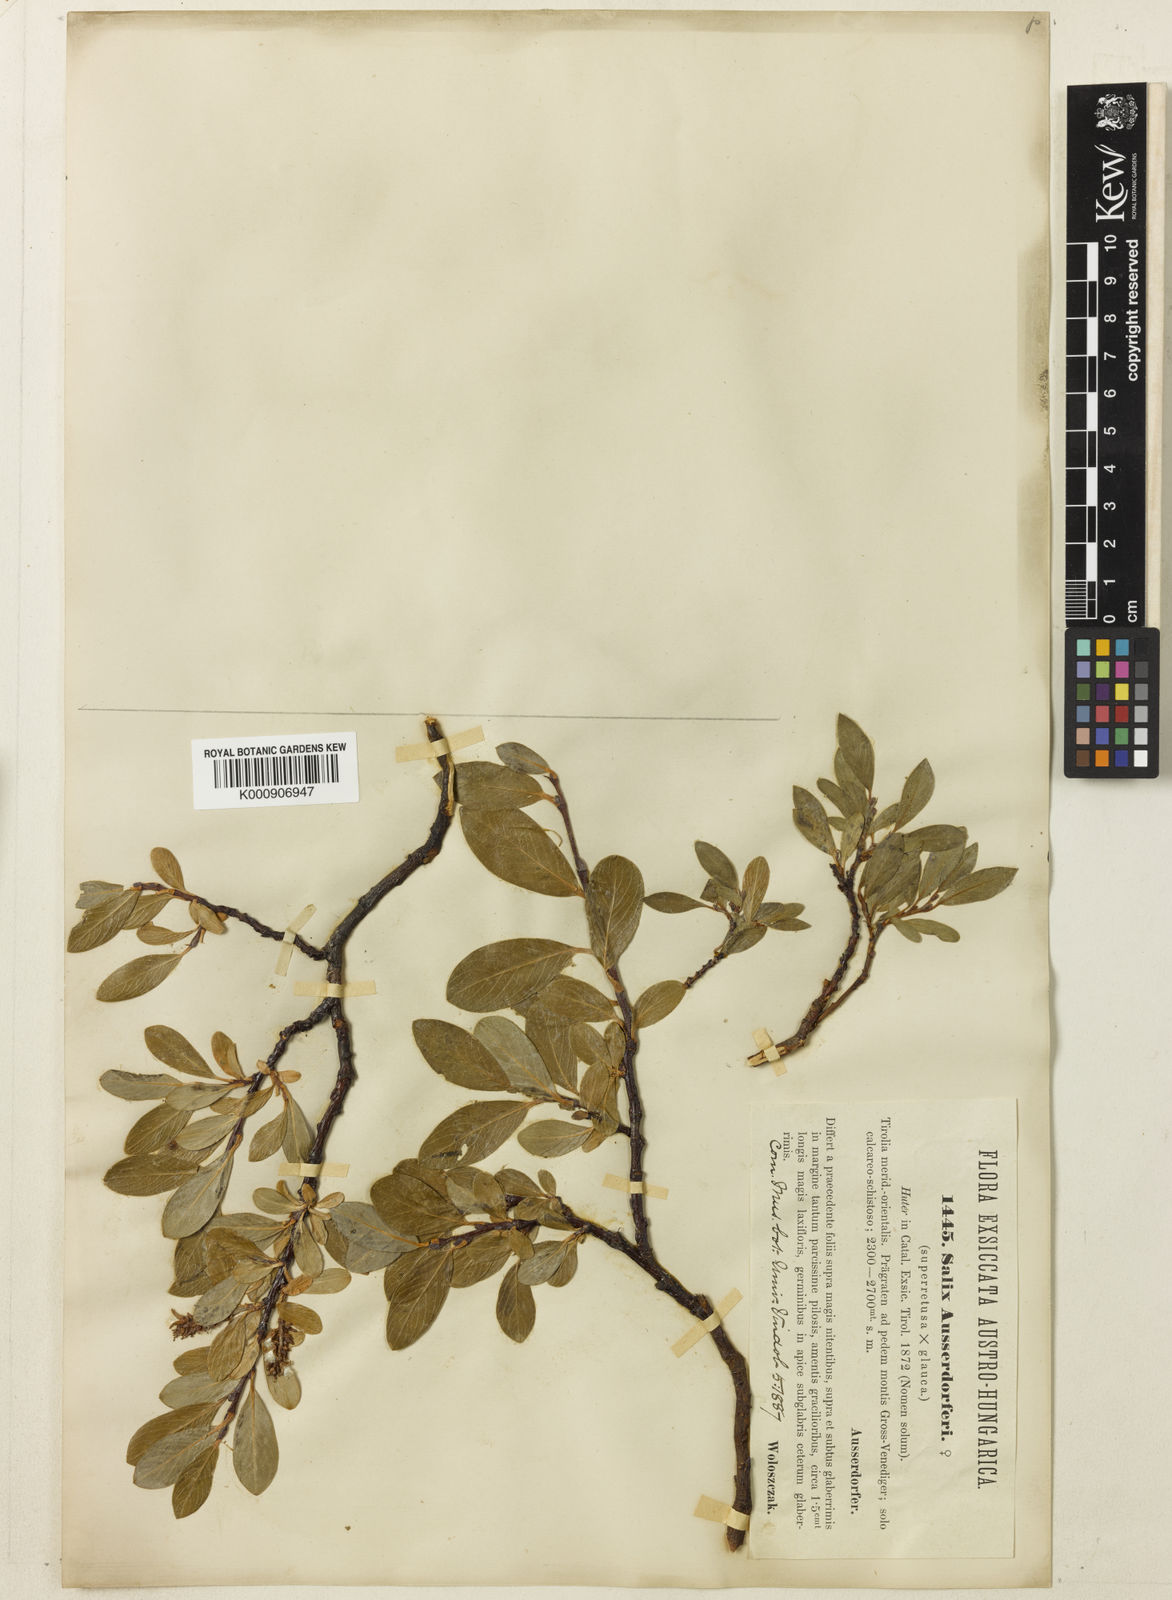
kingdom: Plantae
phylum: Tracheophyta
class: Magnoliopsida
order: Malpighiales
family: Salicaceae
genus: Salix
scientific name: Salix lapponum
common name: Downy willow
